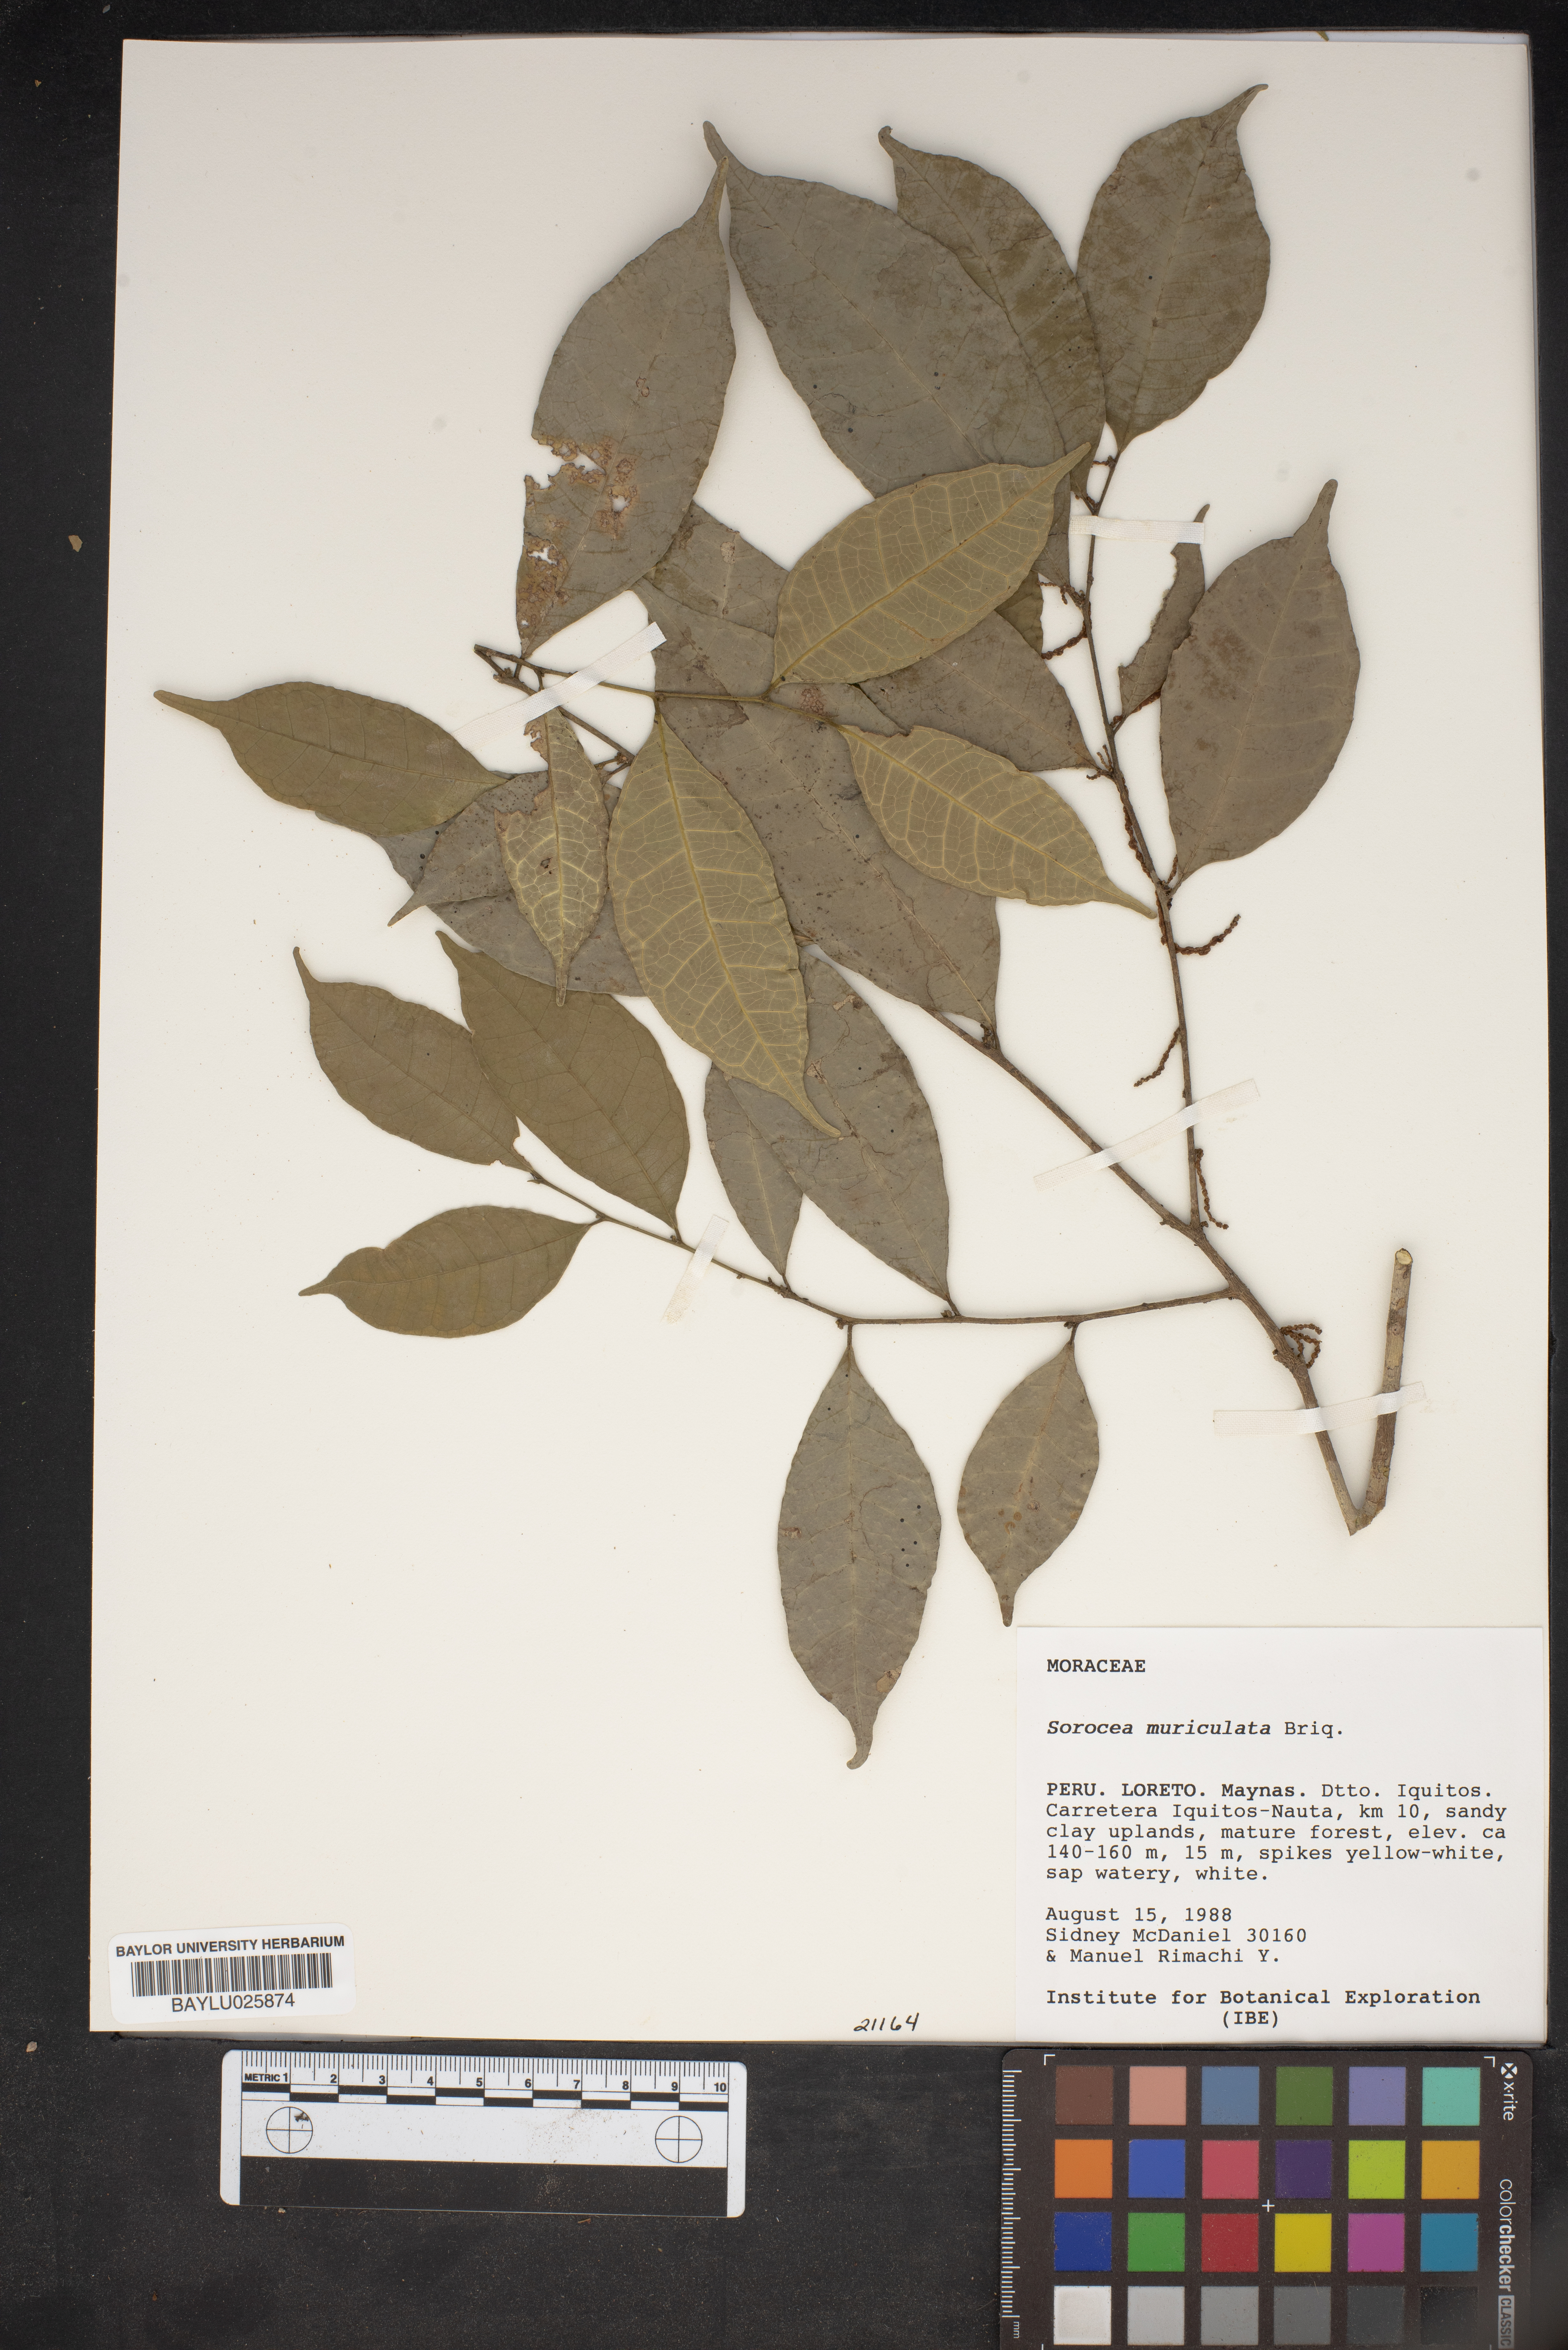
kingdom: Plantae
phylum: Tracheophyta
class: Magnoliopsida
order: Rosales
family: Moraceae
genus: Sorocea
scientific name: Sorocea muriculata
